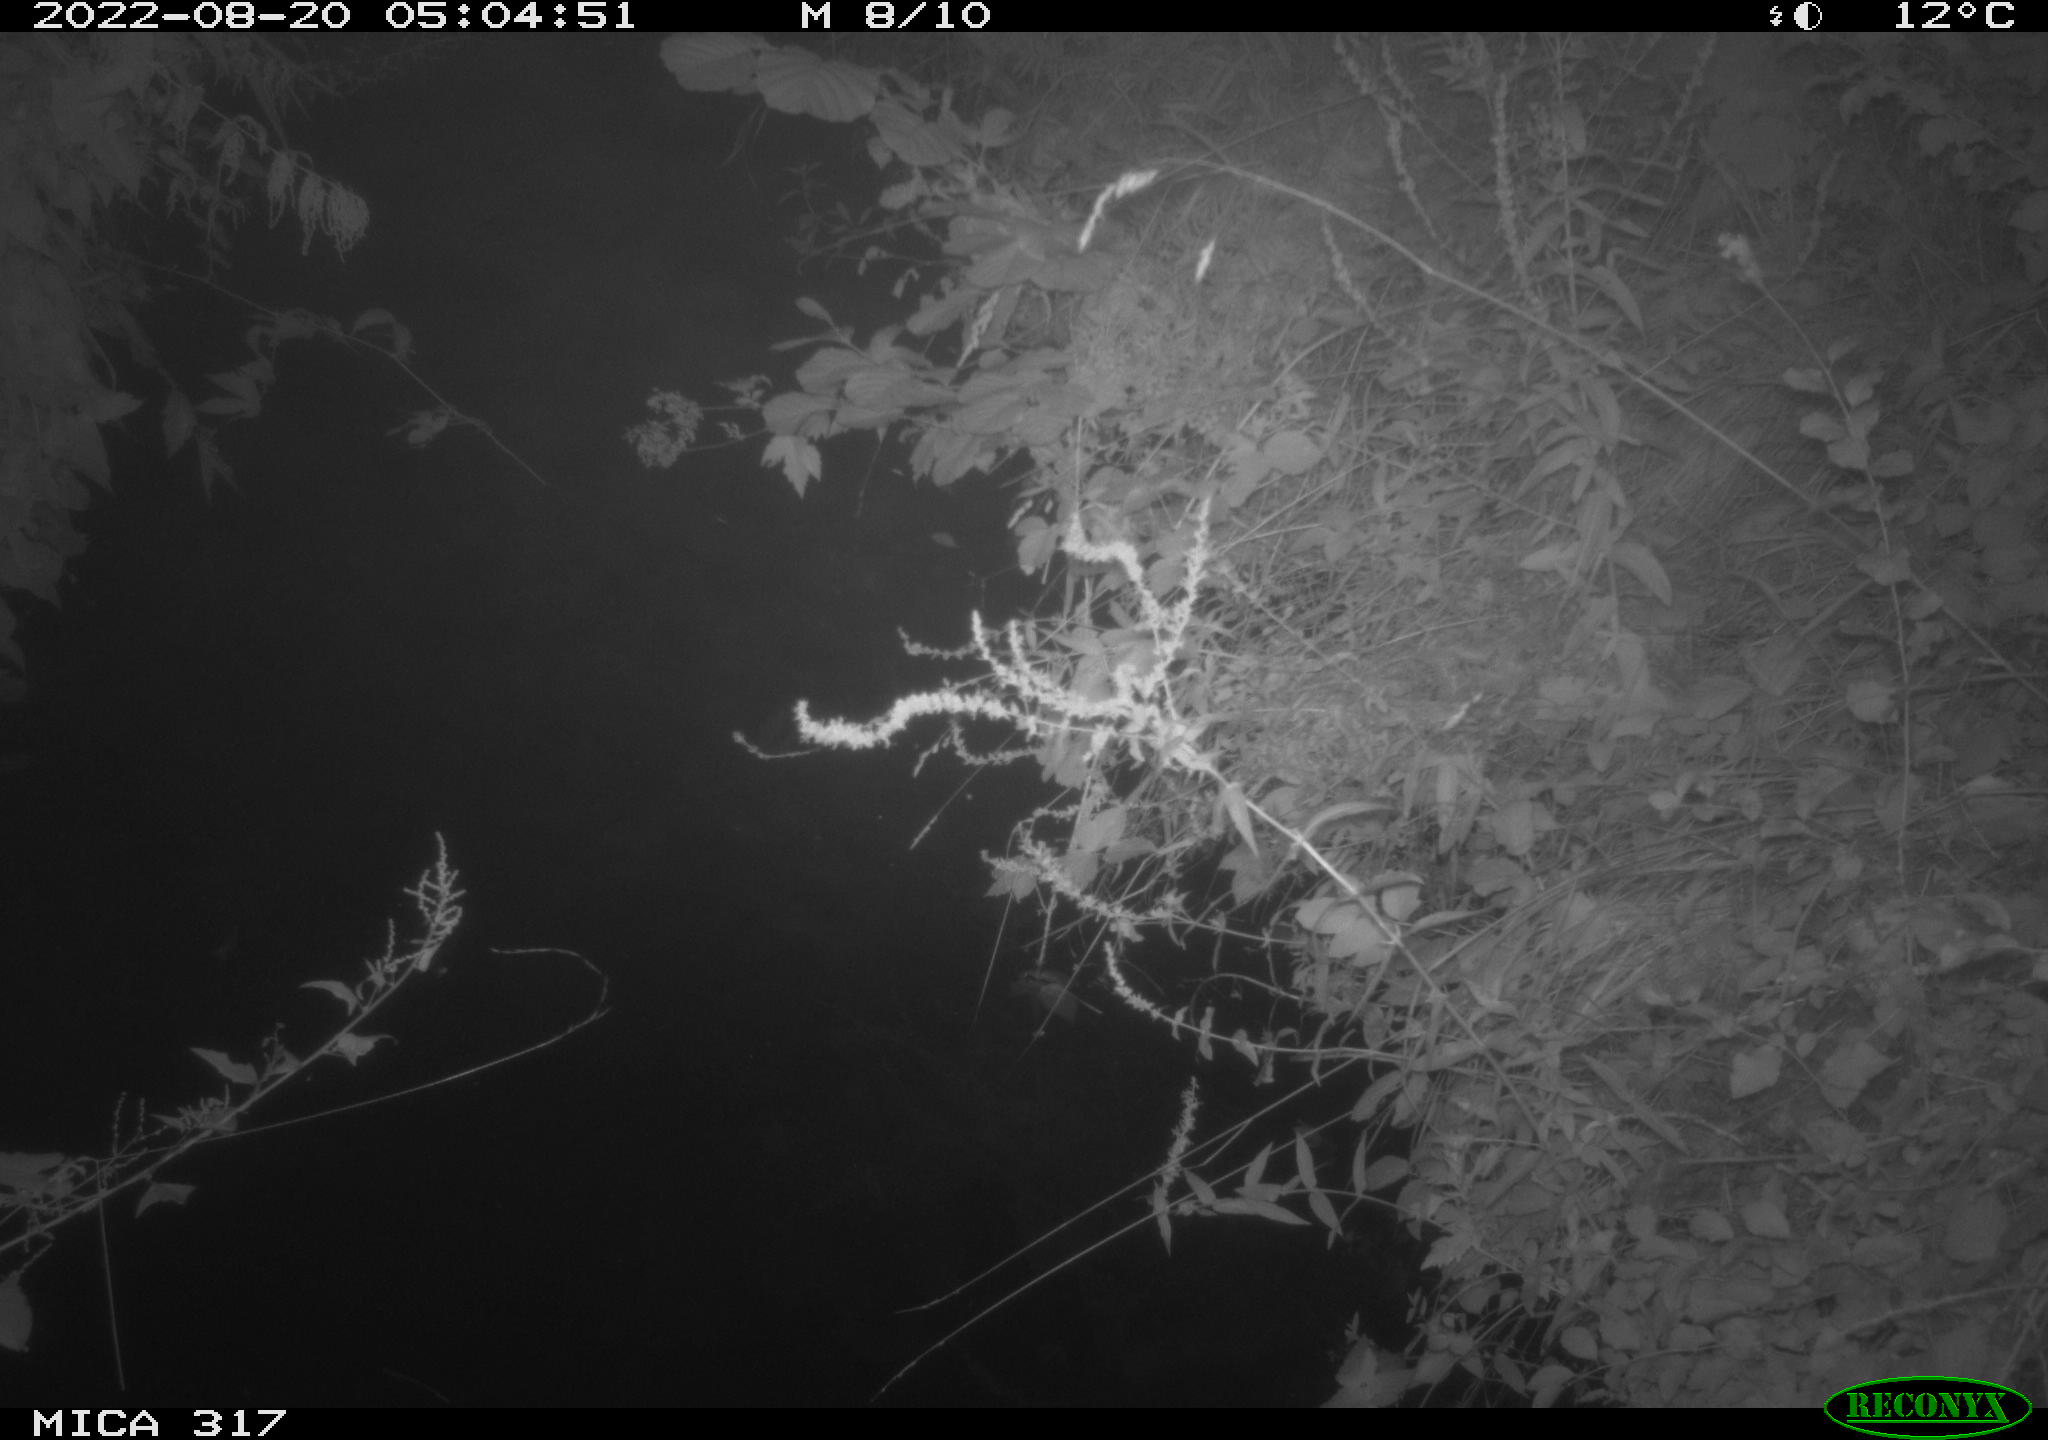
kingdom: Animalia
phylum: Chordata
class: Aves
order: Anseriformes
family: Anatidae
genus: Anas
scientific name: Anas
